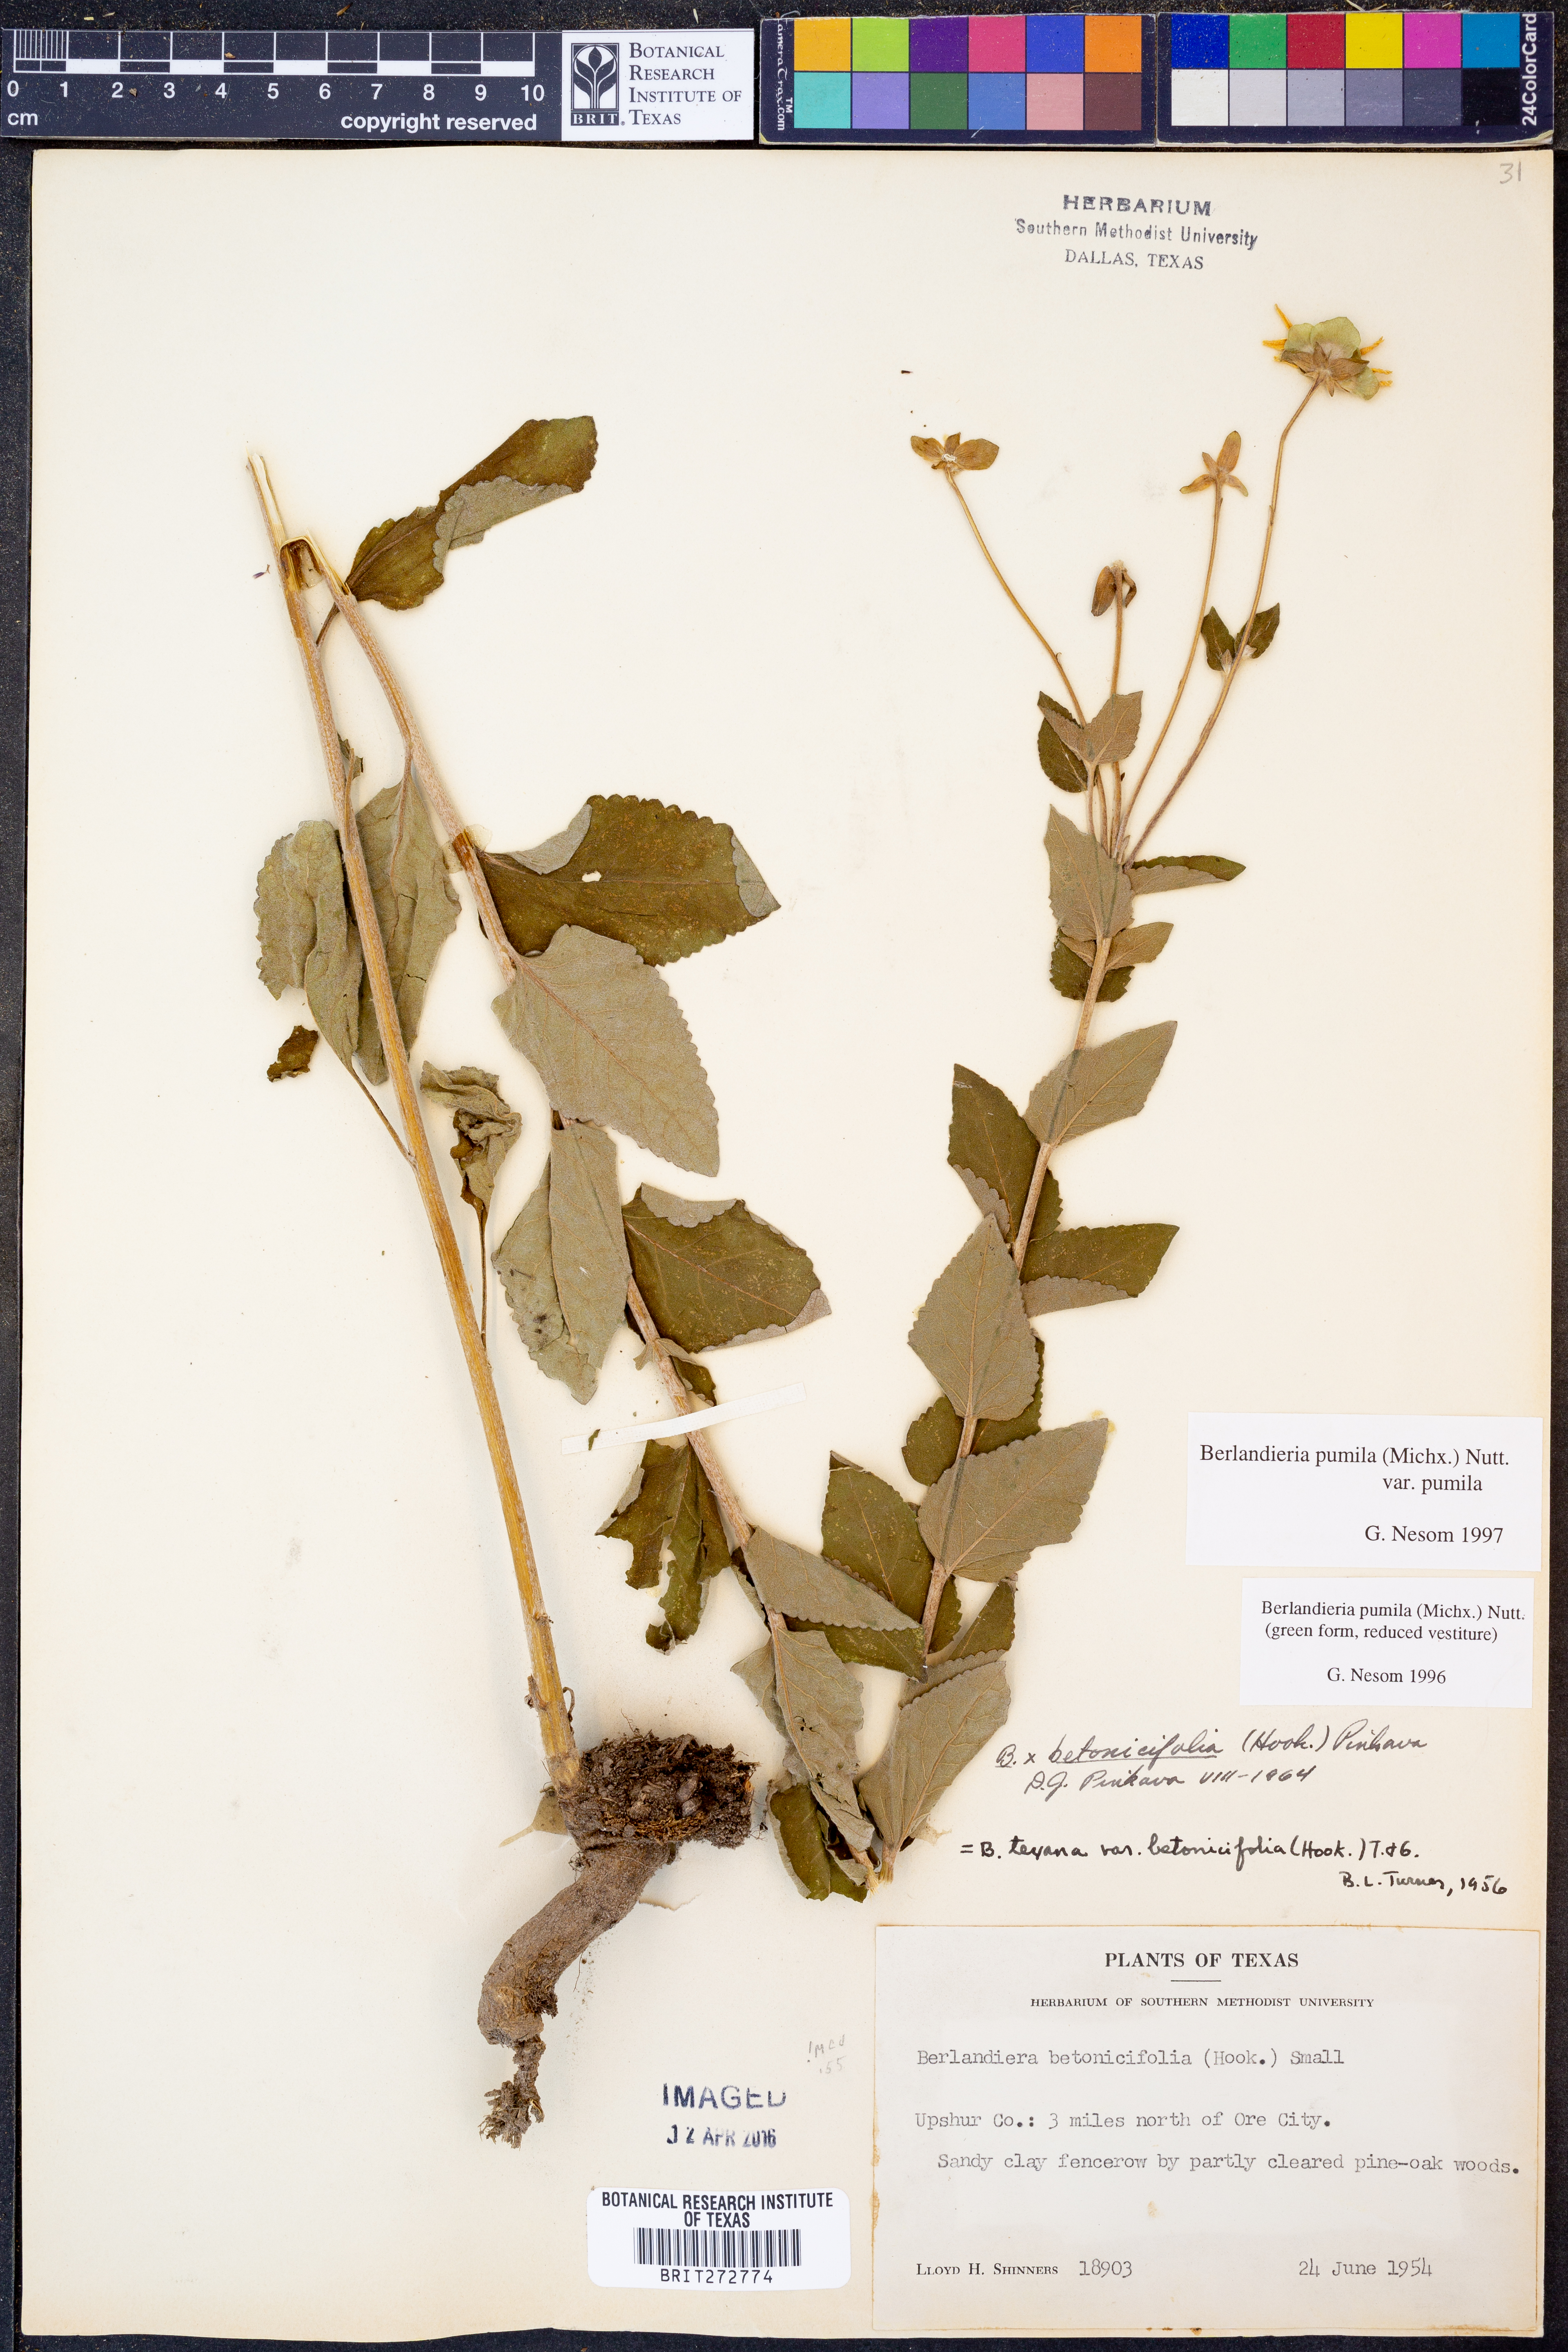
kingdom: Plantae
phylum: Tracheophyta
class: Magnoliopsida
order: Asterales
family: Asteraceae
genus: Berlandiera
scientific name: Berlandiera pumila
